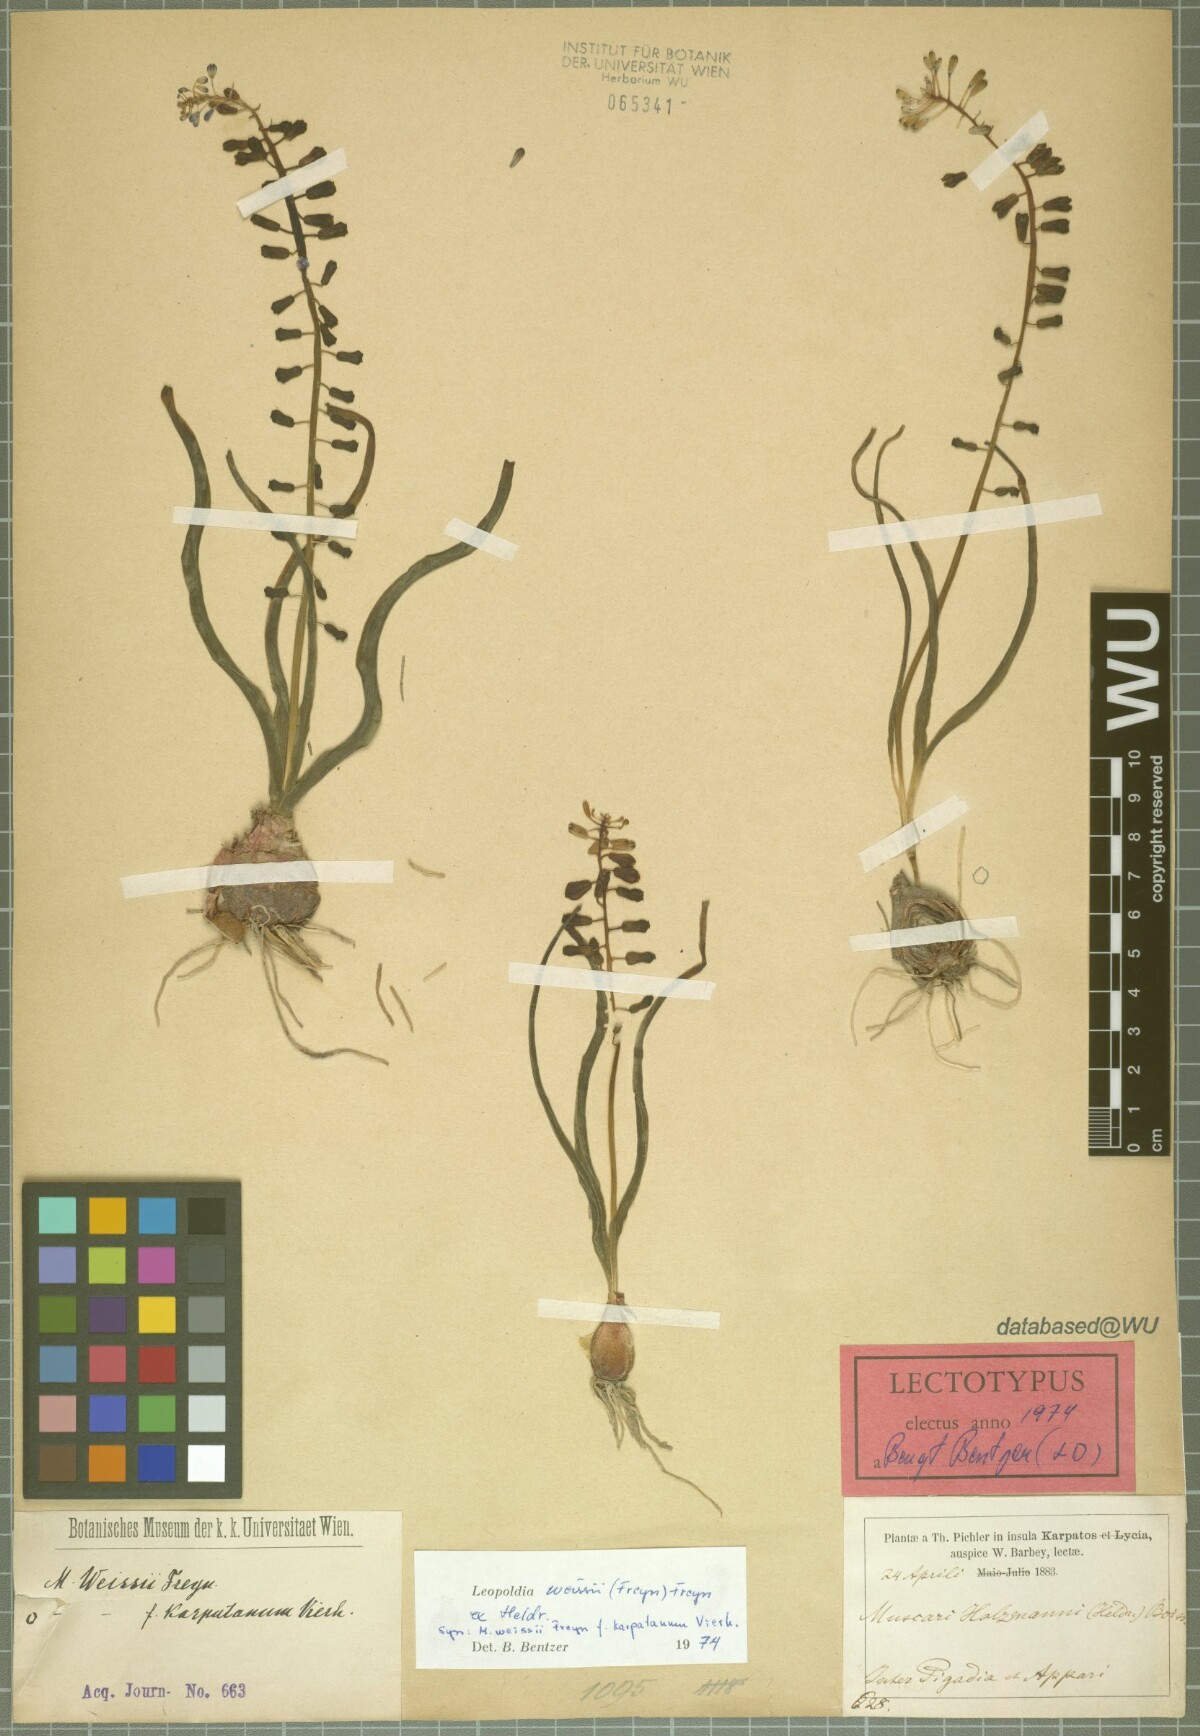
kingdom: Plantae
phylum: Tracheophyta
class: Liliopsida
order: Asparagales
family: Asparagaceae
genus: Muscari
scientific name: Muscari weissii
